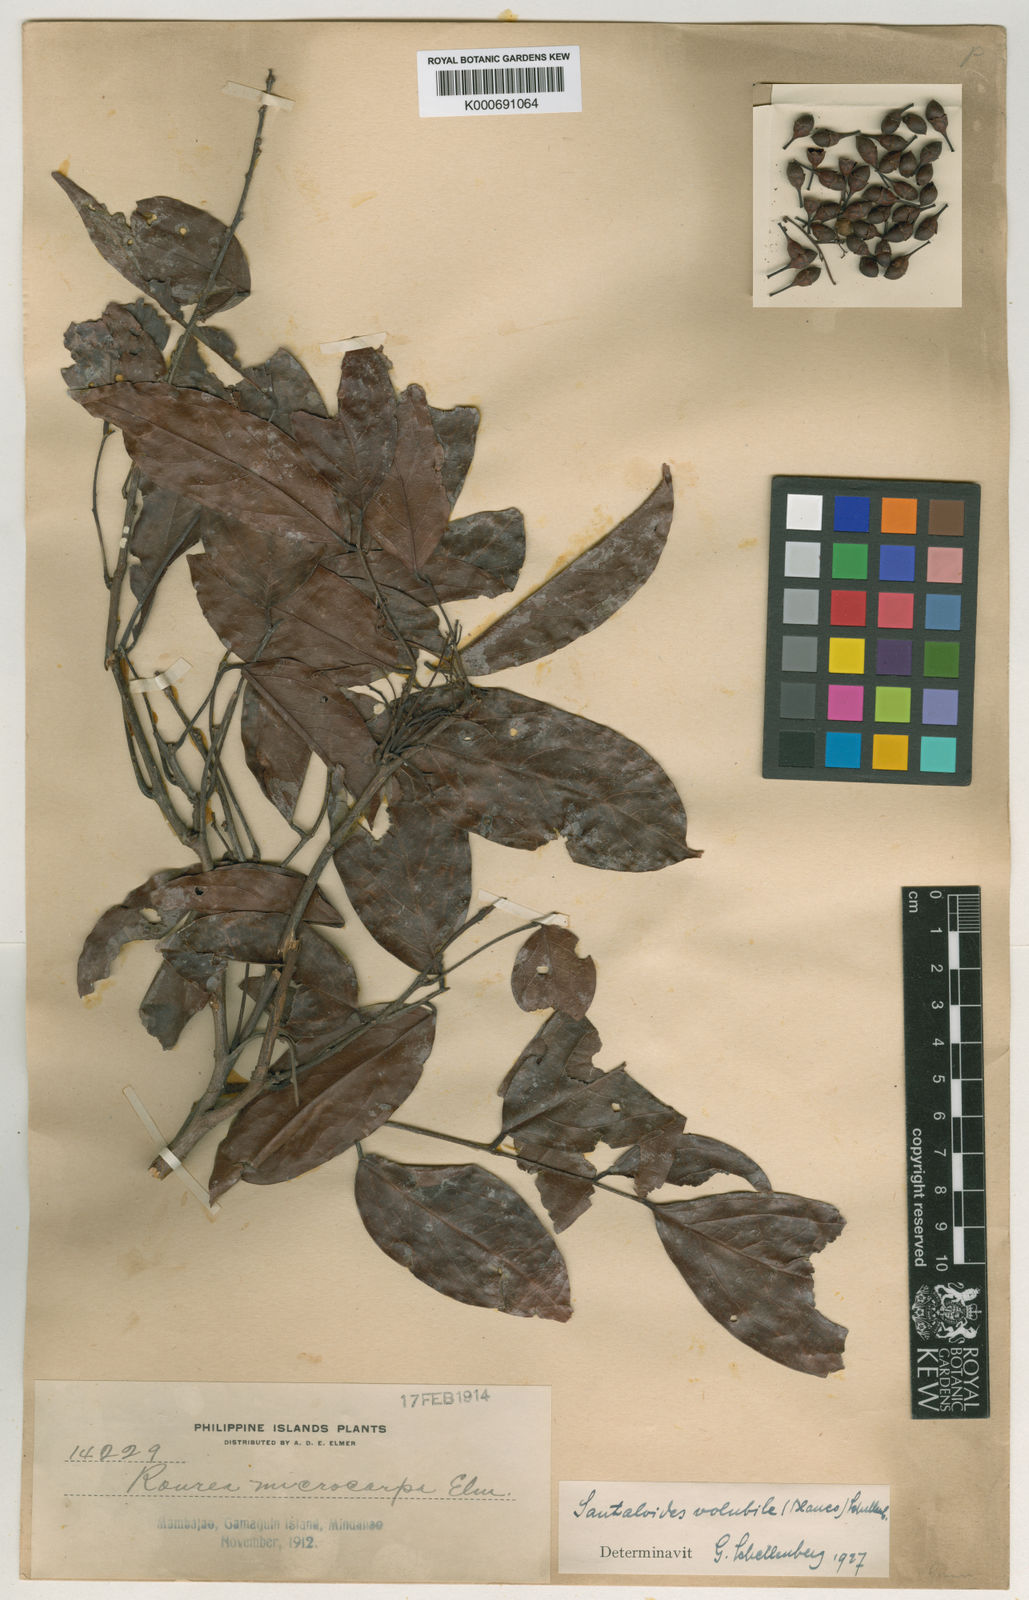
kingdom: Plantae
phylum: Tracheophyta
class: Magnoliopsida
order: Oxalidales
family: Connaraceae
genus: Rourea
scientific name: Rourea
